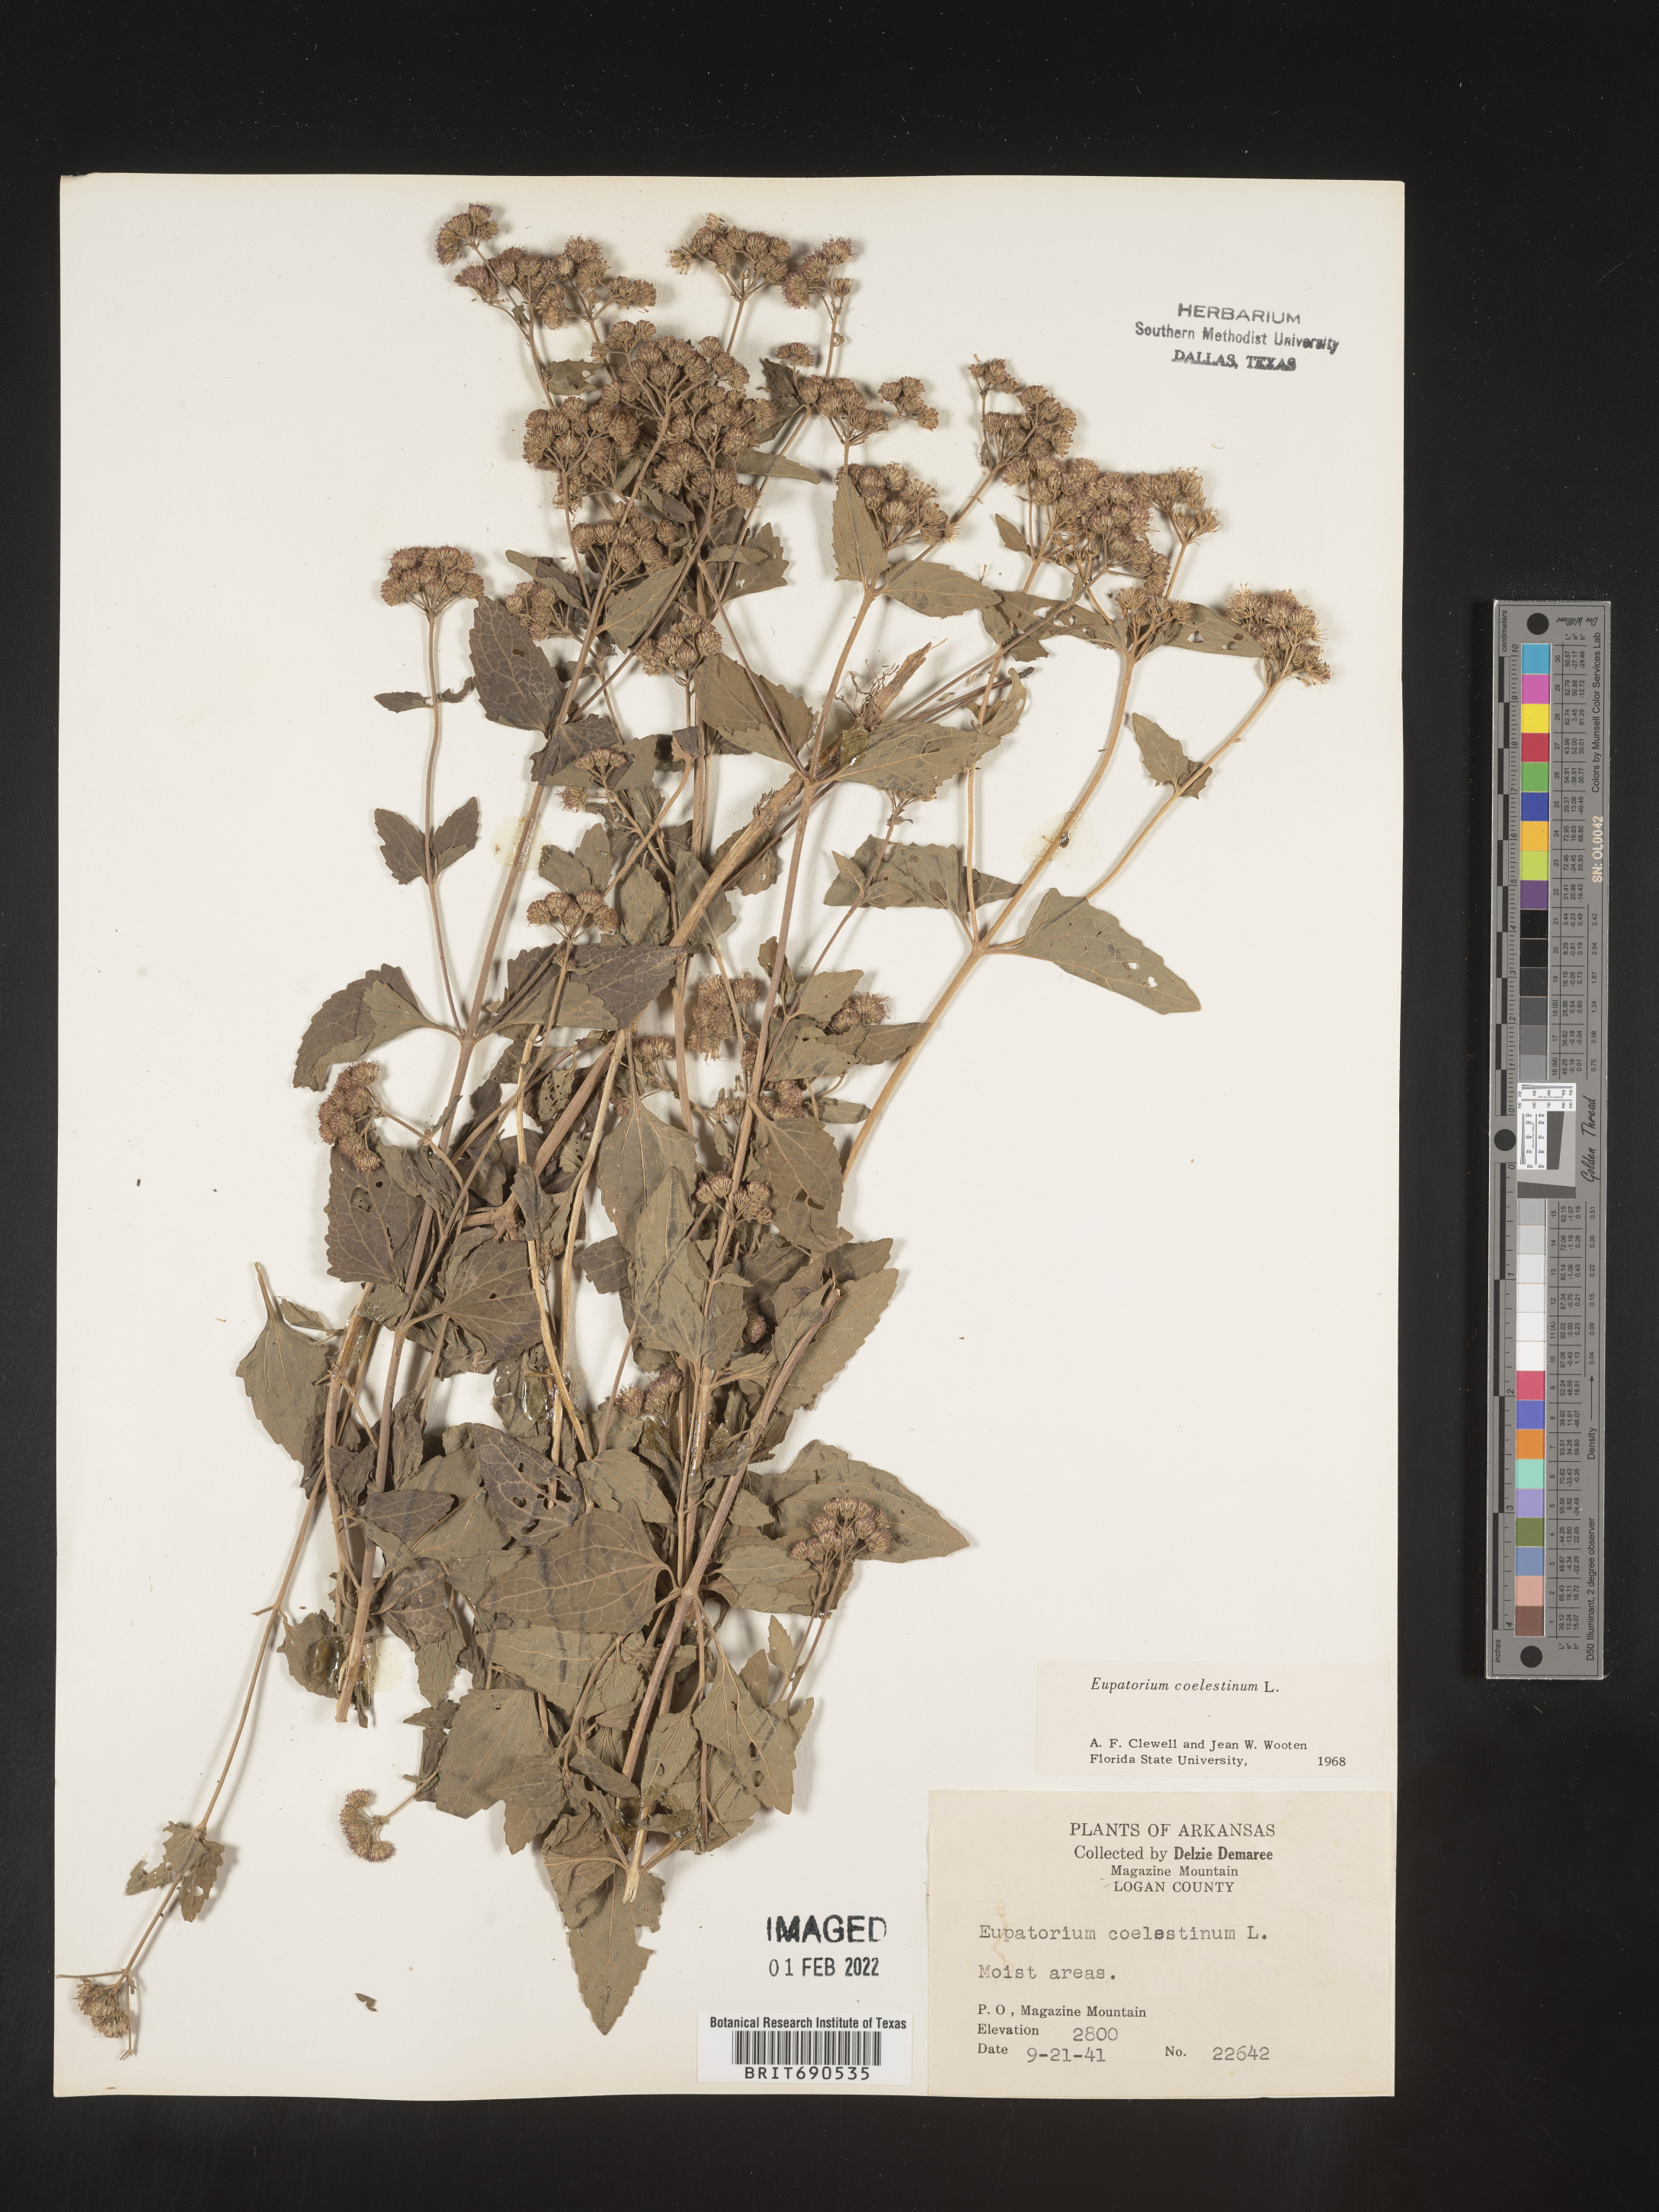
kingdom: Plantae
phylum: Tracheophyta
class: Magnoliopsida
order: Asterales
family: Asteraceae
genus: Conoclinium
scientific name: Conoclinium coelestinum
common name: Blue mistflower
